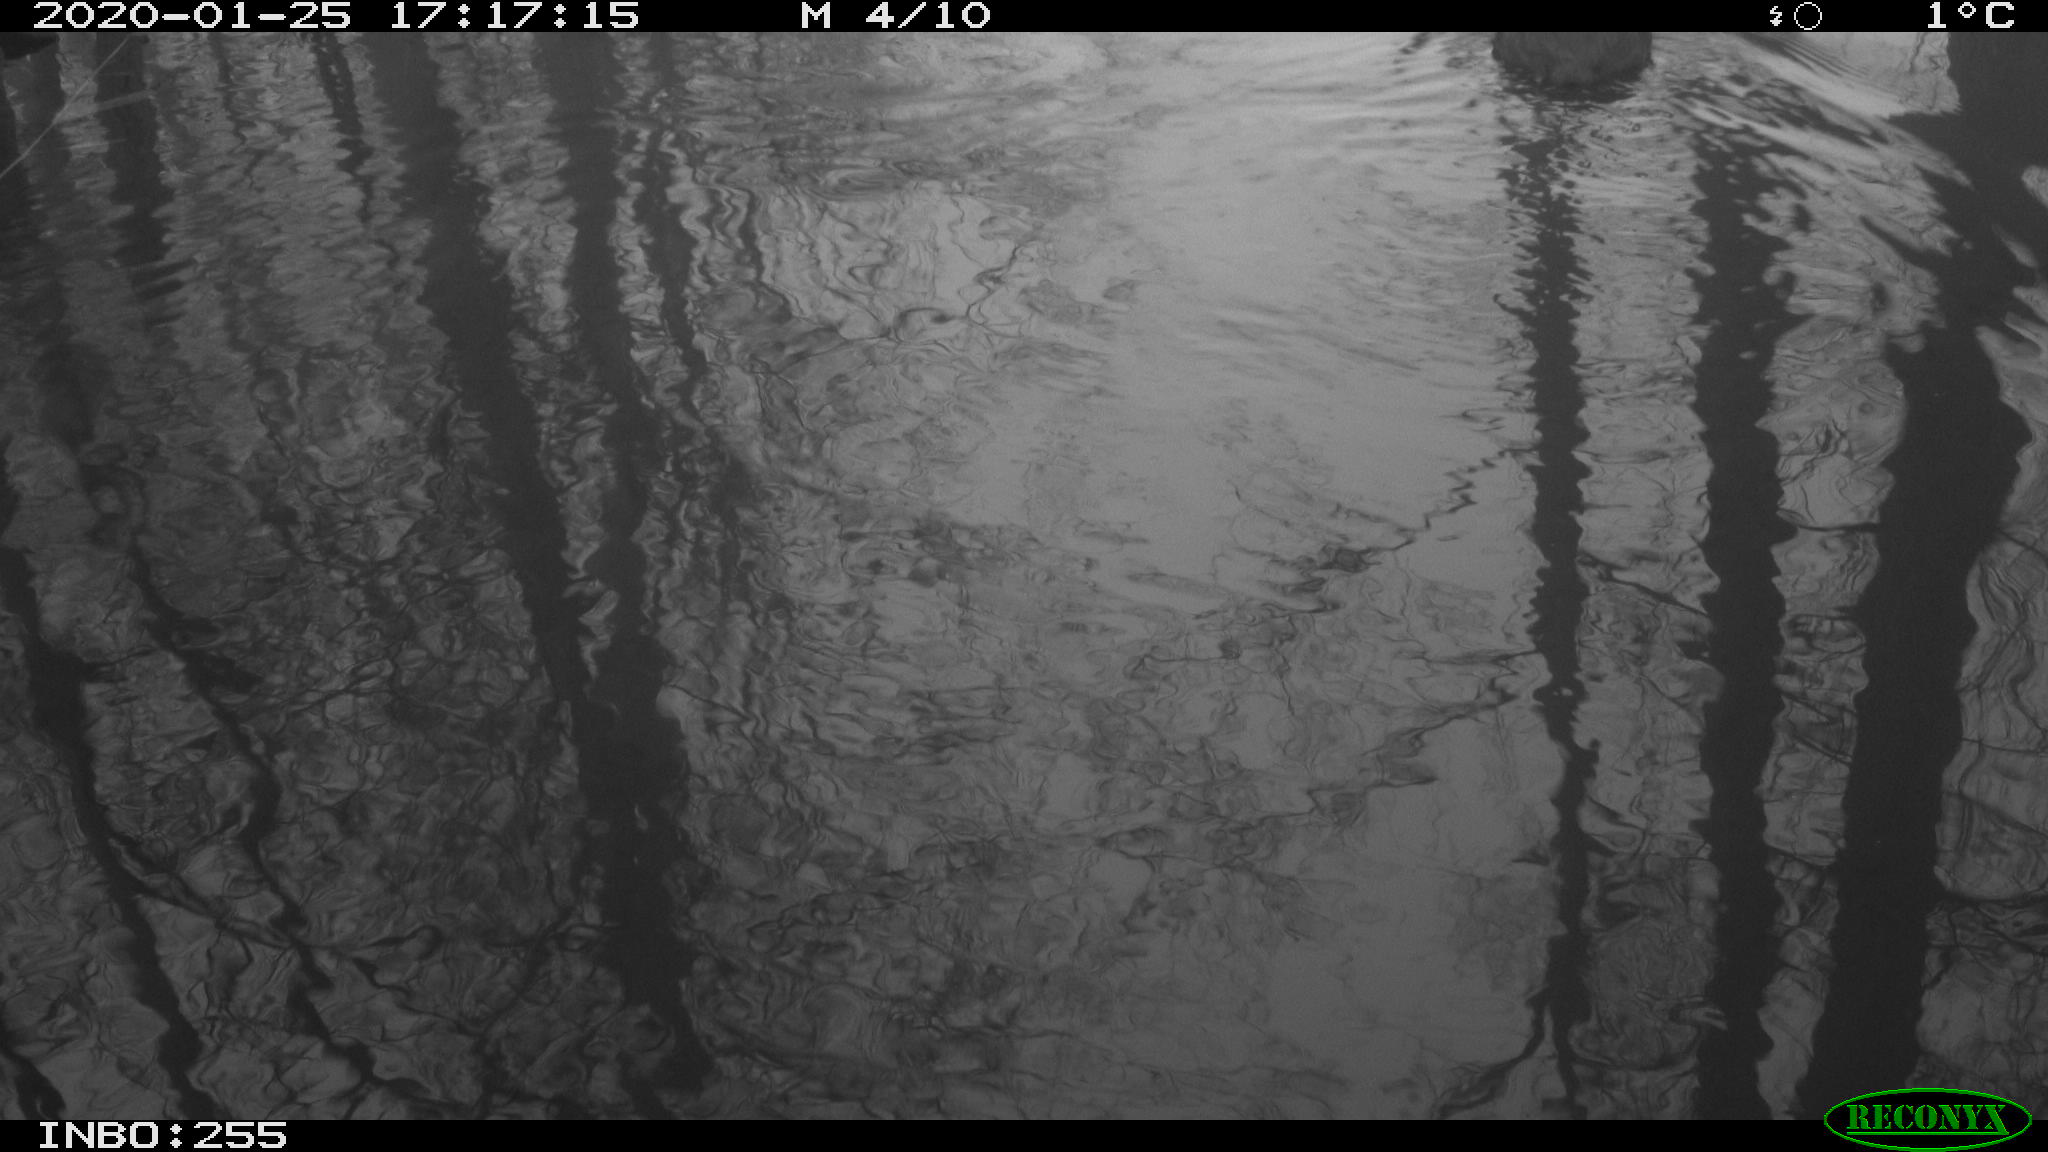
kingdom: Animalia
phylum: Chordata
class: Aves
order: Gruiformes
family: Rallidae
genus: Fulica
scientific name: Fulica atra
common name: Eurasian coot
